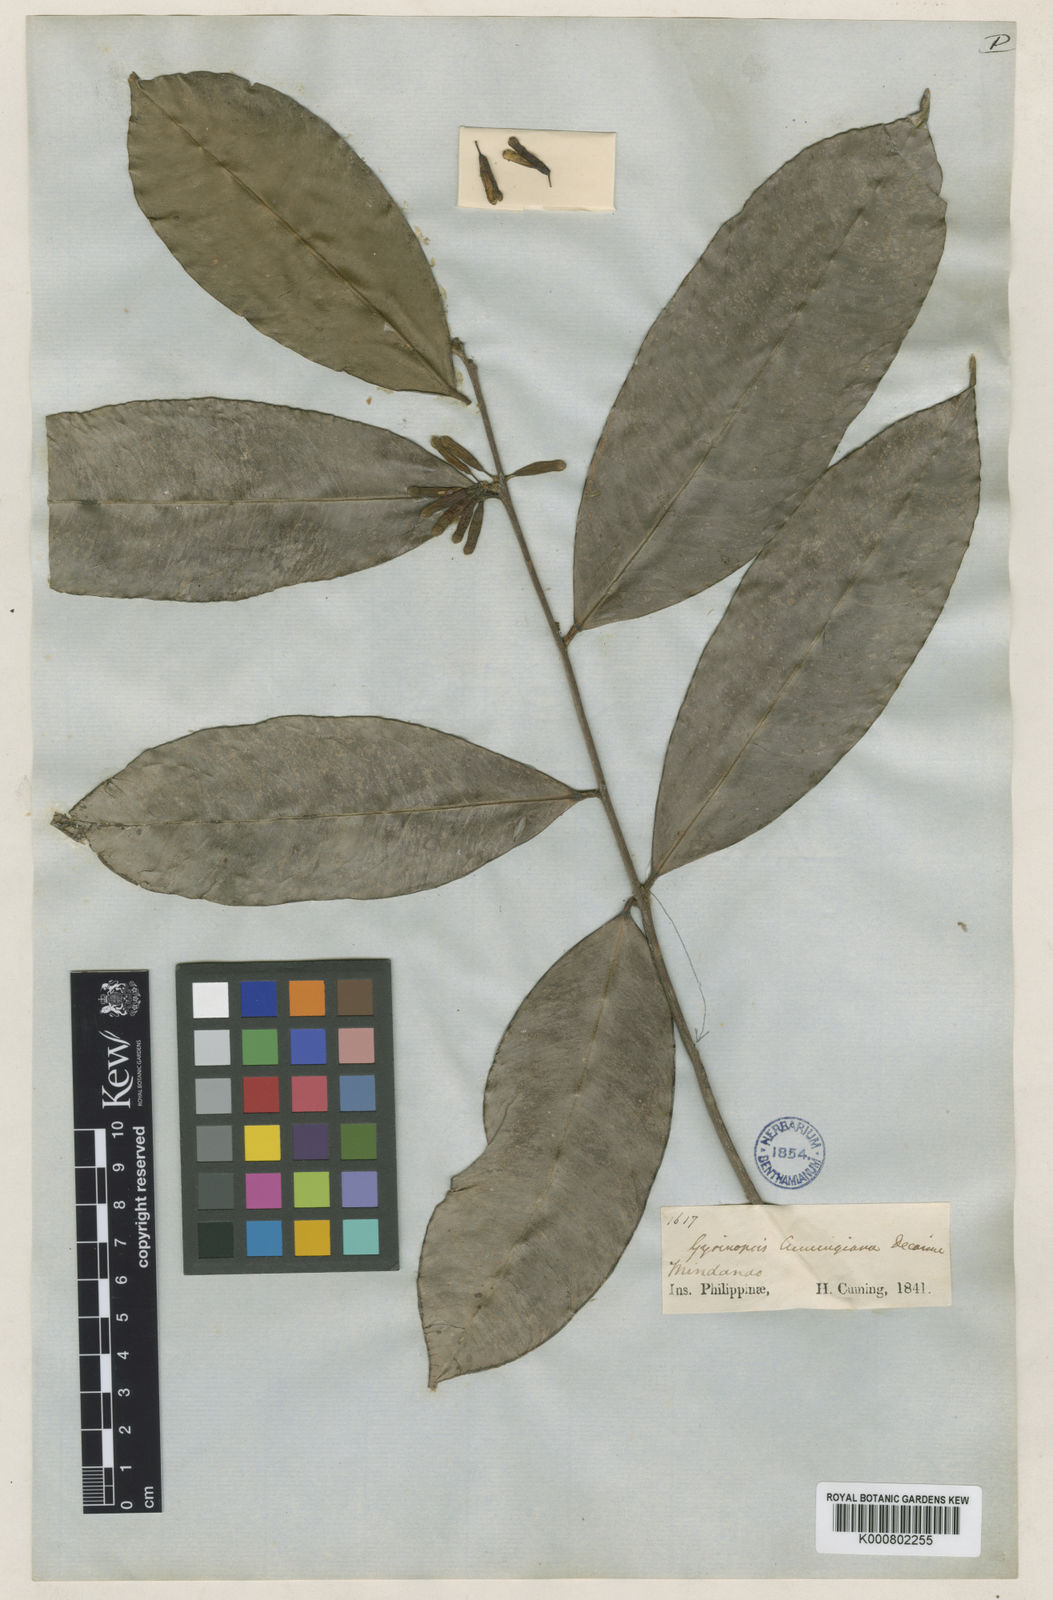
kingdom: Plantae
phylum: Tracheophyta
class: Magnoliopsida
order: Malvales
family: Thymelaeaceae
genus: Aquilaria
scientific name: Aquilaria cumingiana
